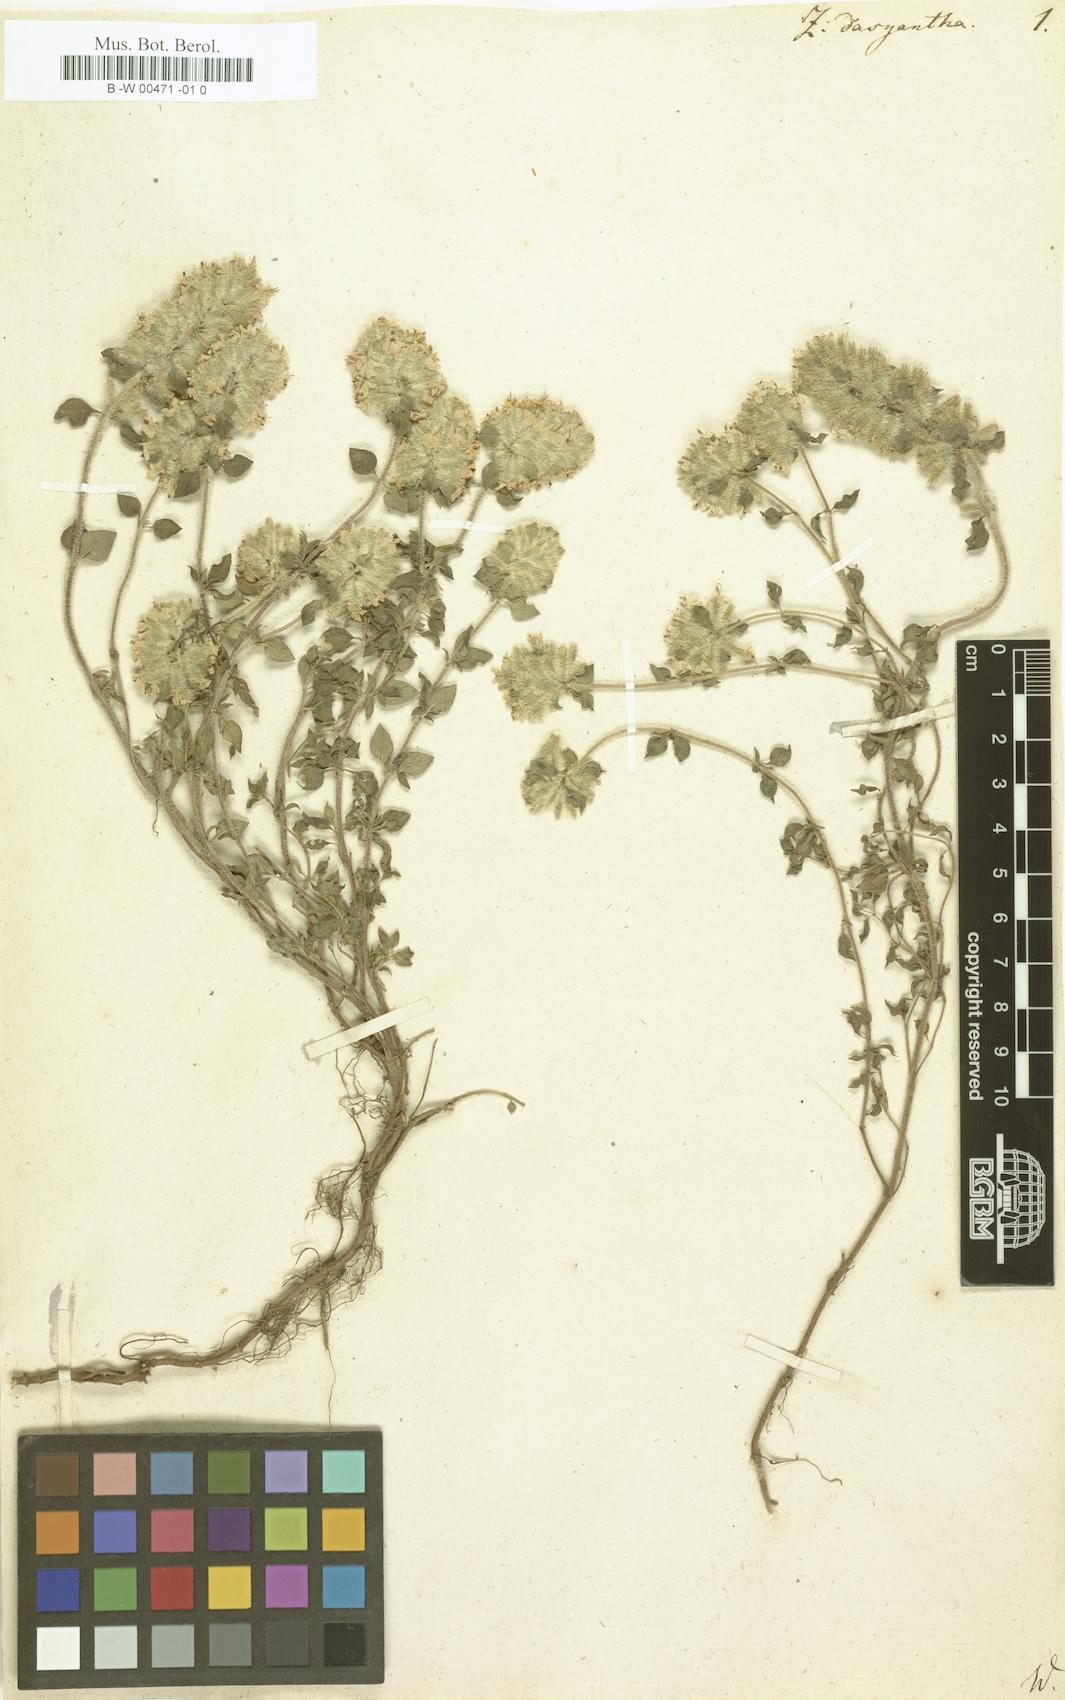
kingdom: Plantae
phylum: Tracheophyta
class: Magnoliopsida
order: Lamiales
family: Lamiaceae
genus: Ziziphora
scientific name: Ziziphora clinopodioides
